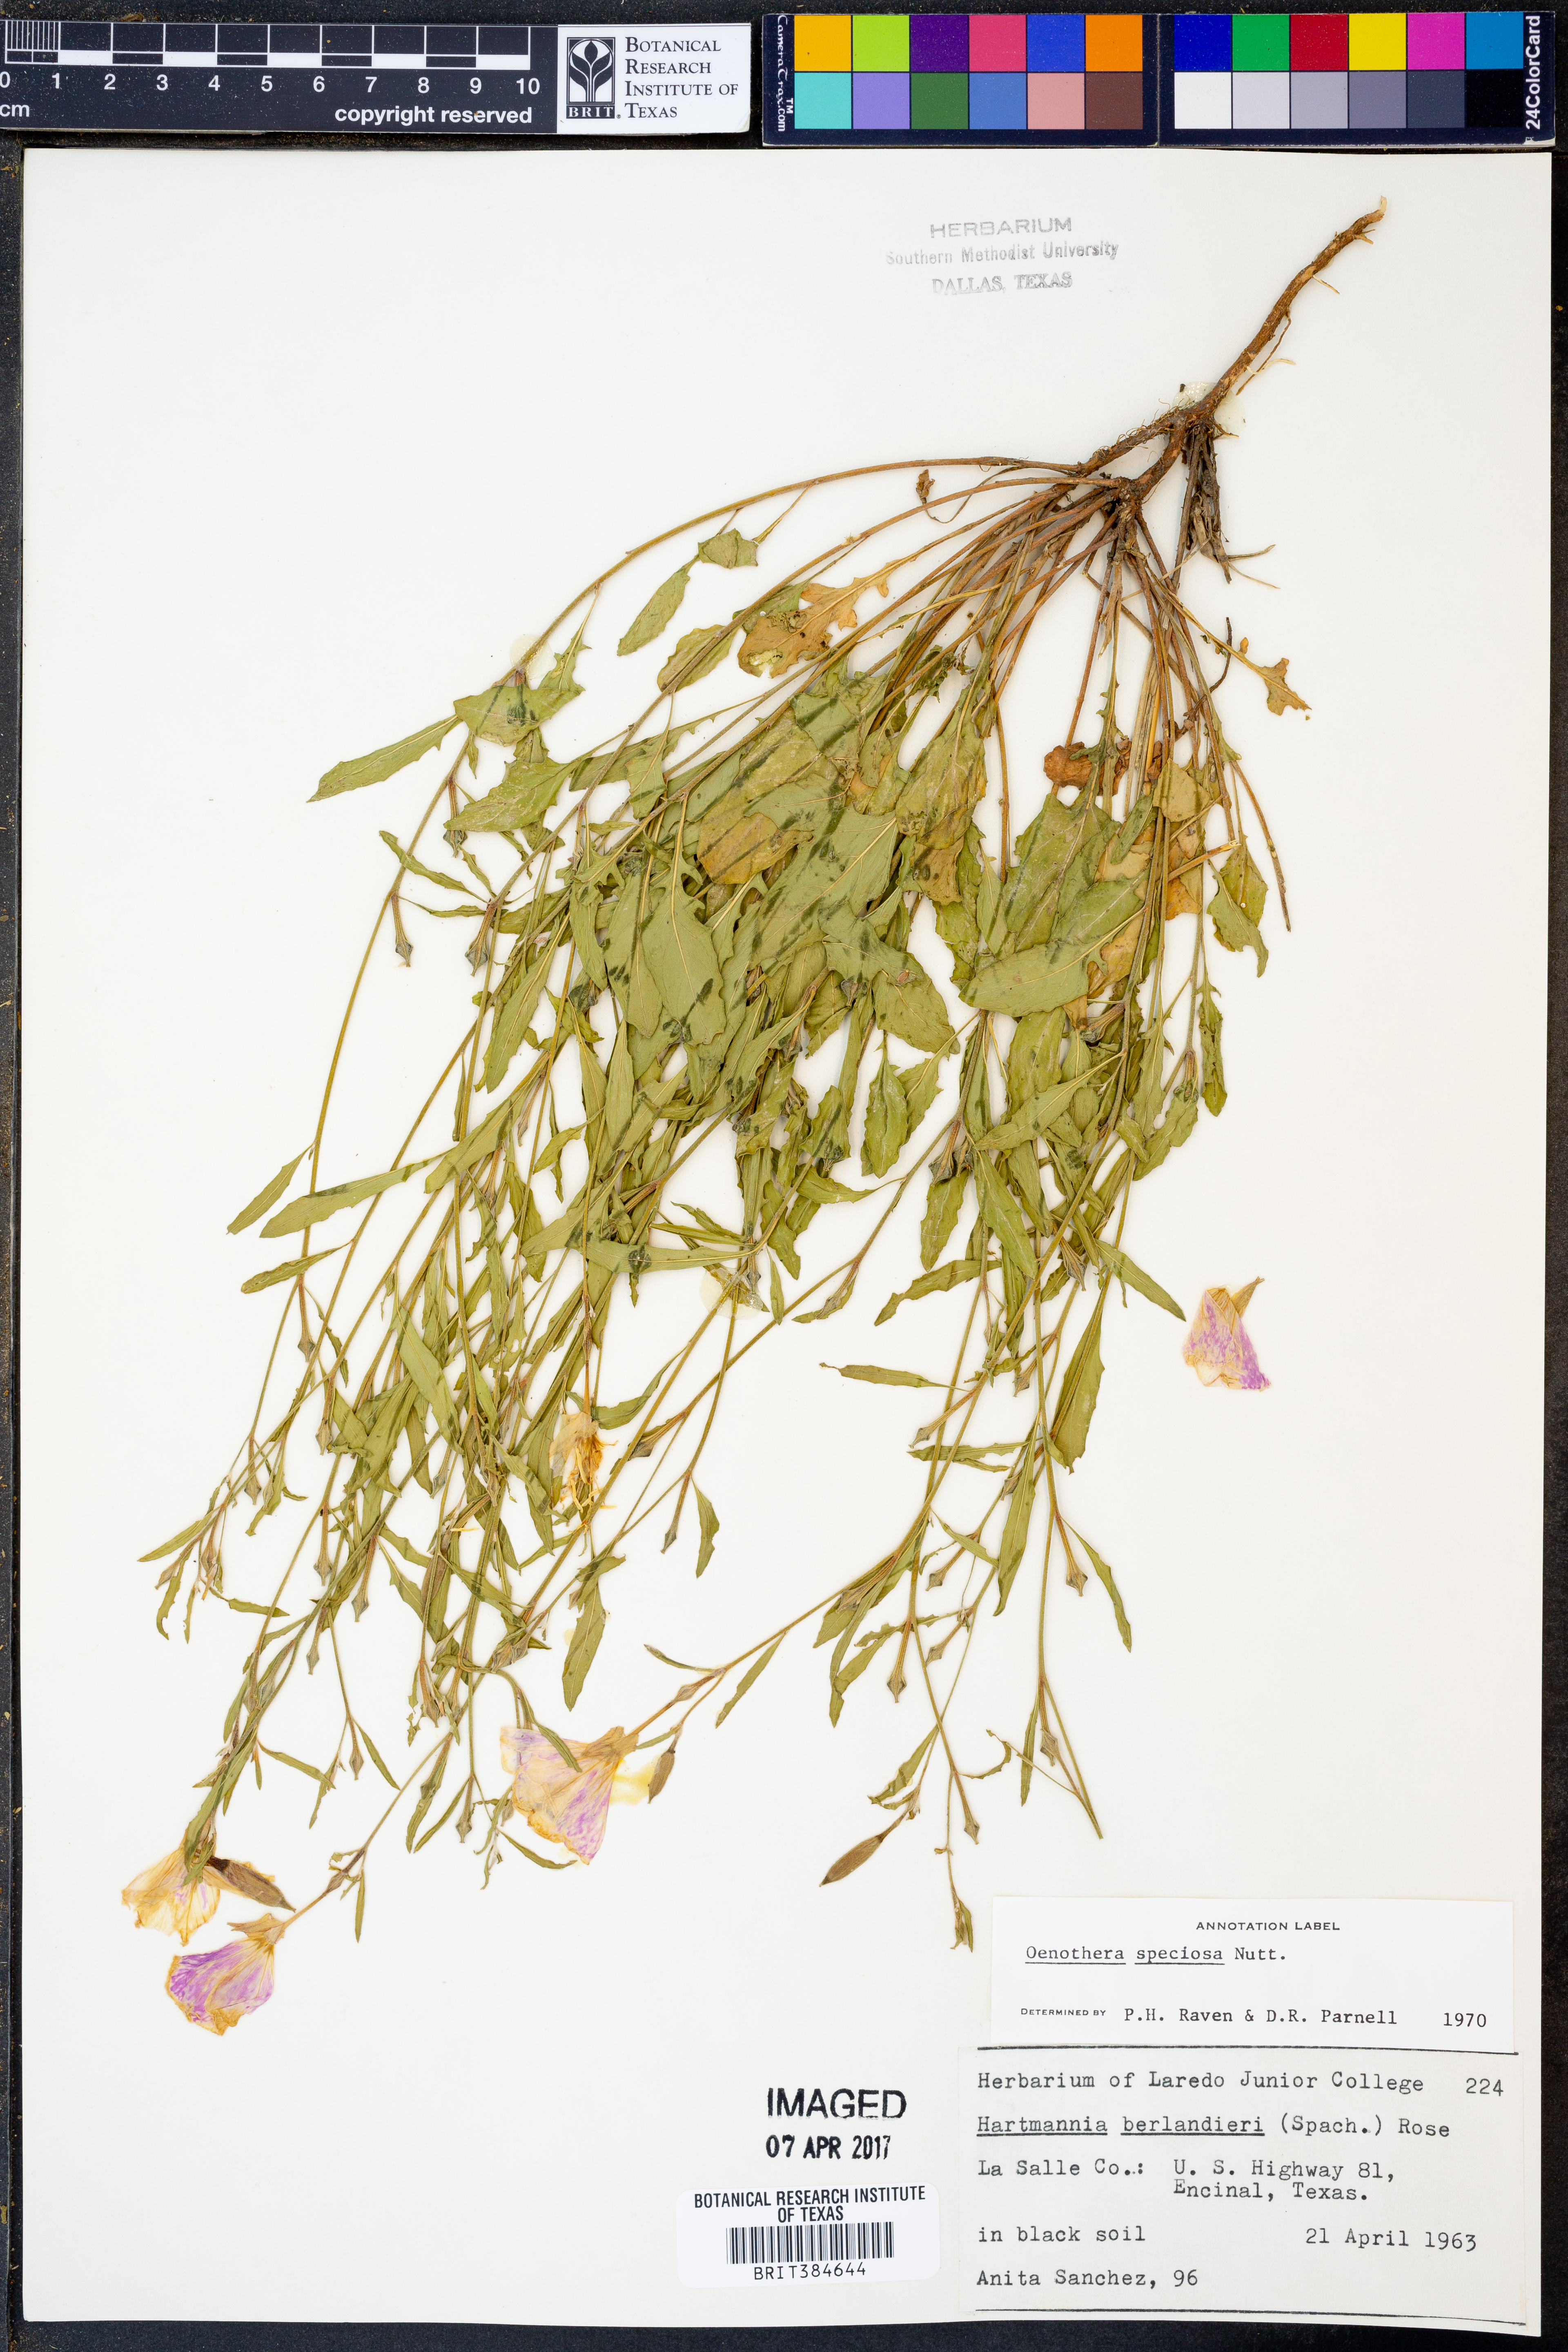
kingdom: Plantae
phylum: Tracheophyta
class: Magnoliopsida
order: Myrtales
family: Onagraceae
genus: Oenothera
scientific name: Oenothera speciosa
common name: White evening-primrose
